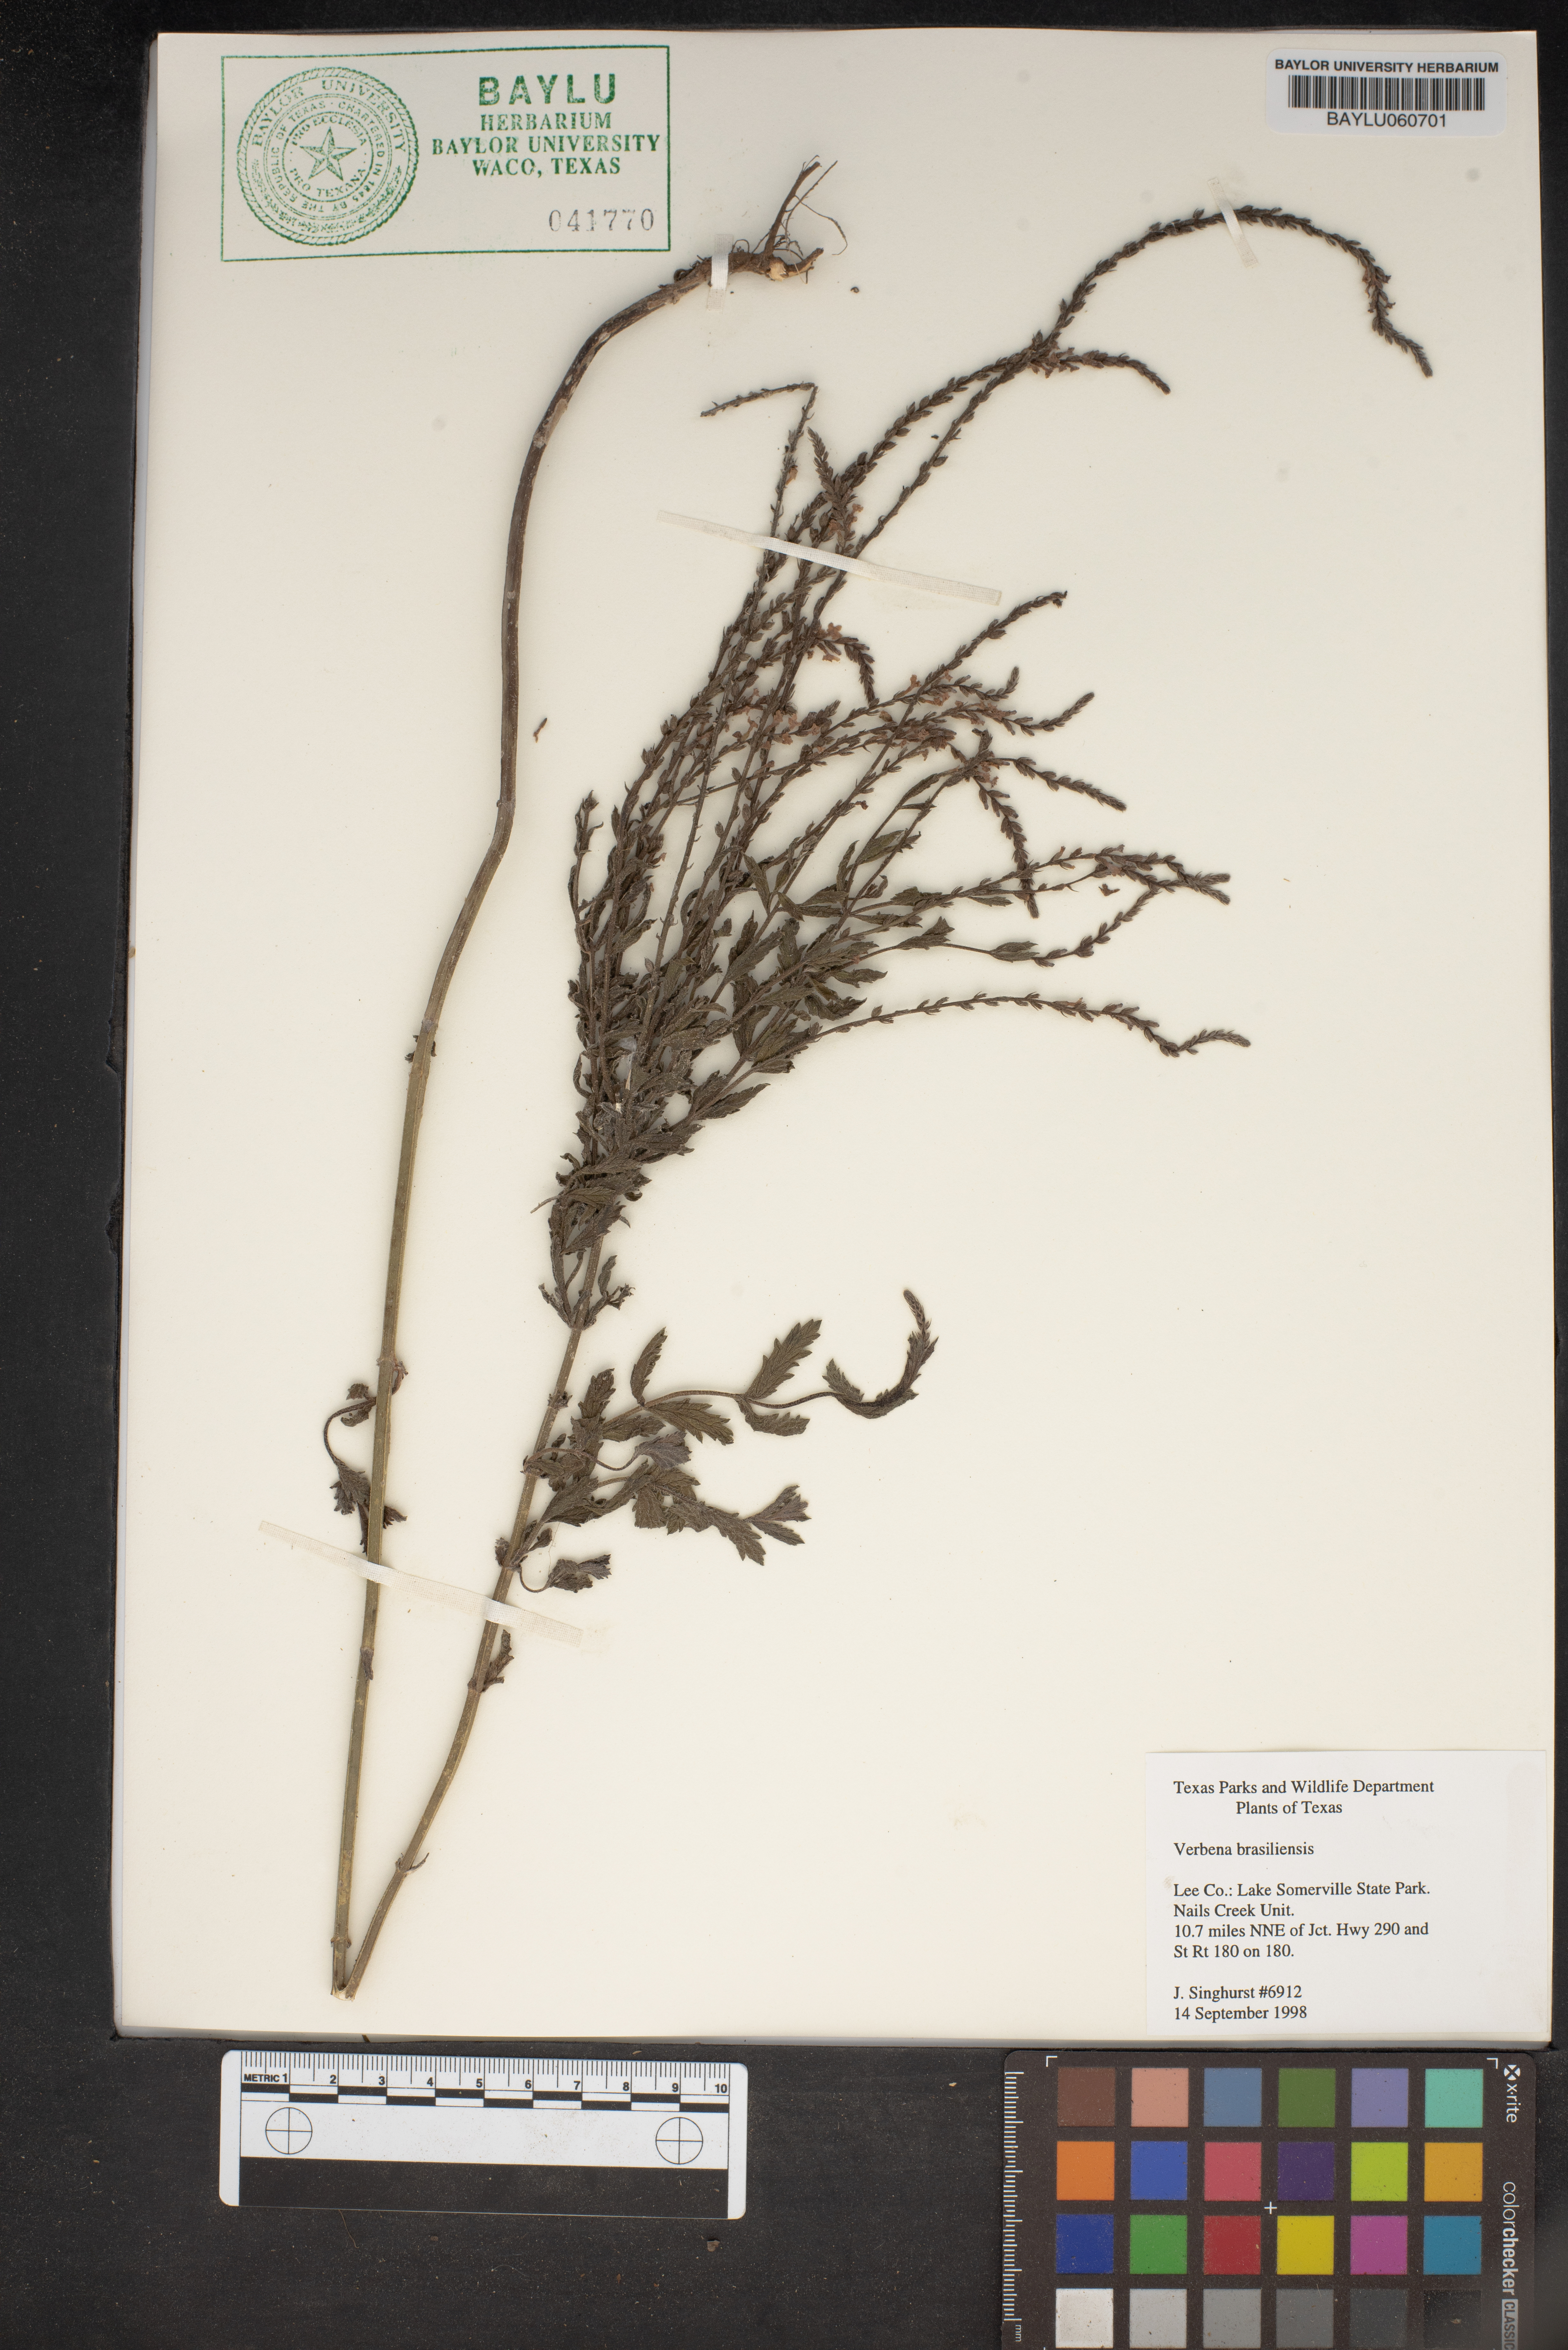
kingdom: Plantae
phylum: Tracheophyta
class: Magnoliopsida
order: Lamiales
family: Verbenaceae
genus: Verbena
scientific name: Verbena brasiliensis
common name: Brazilian vervain
